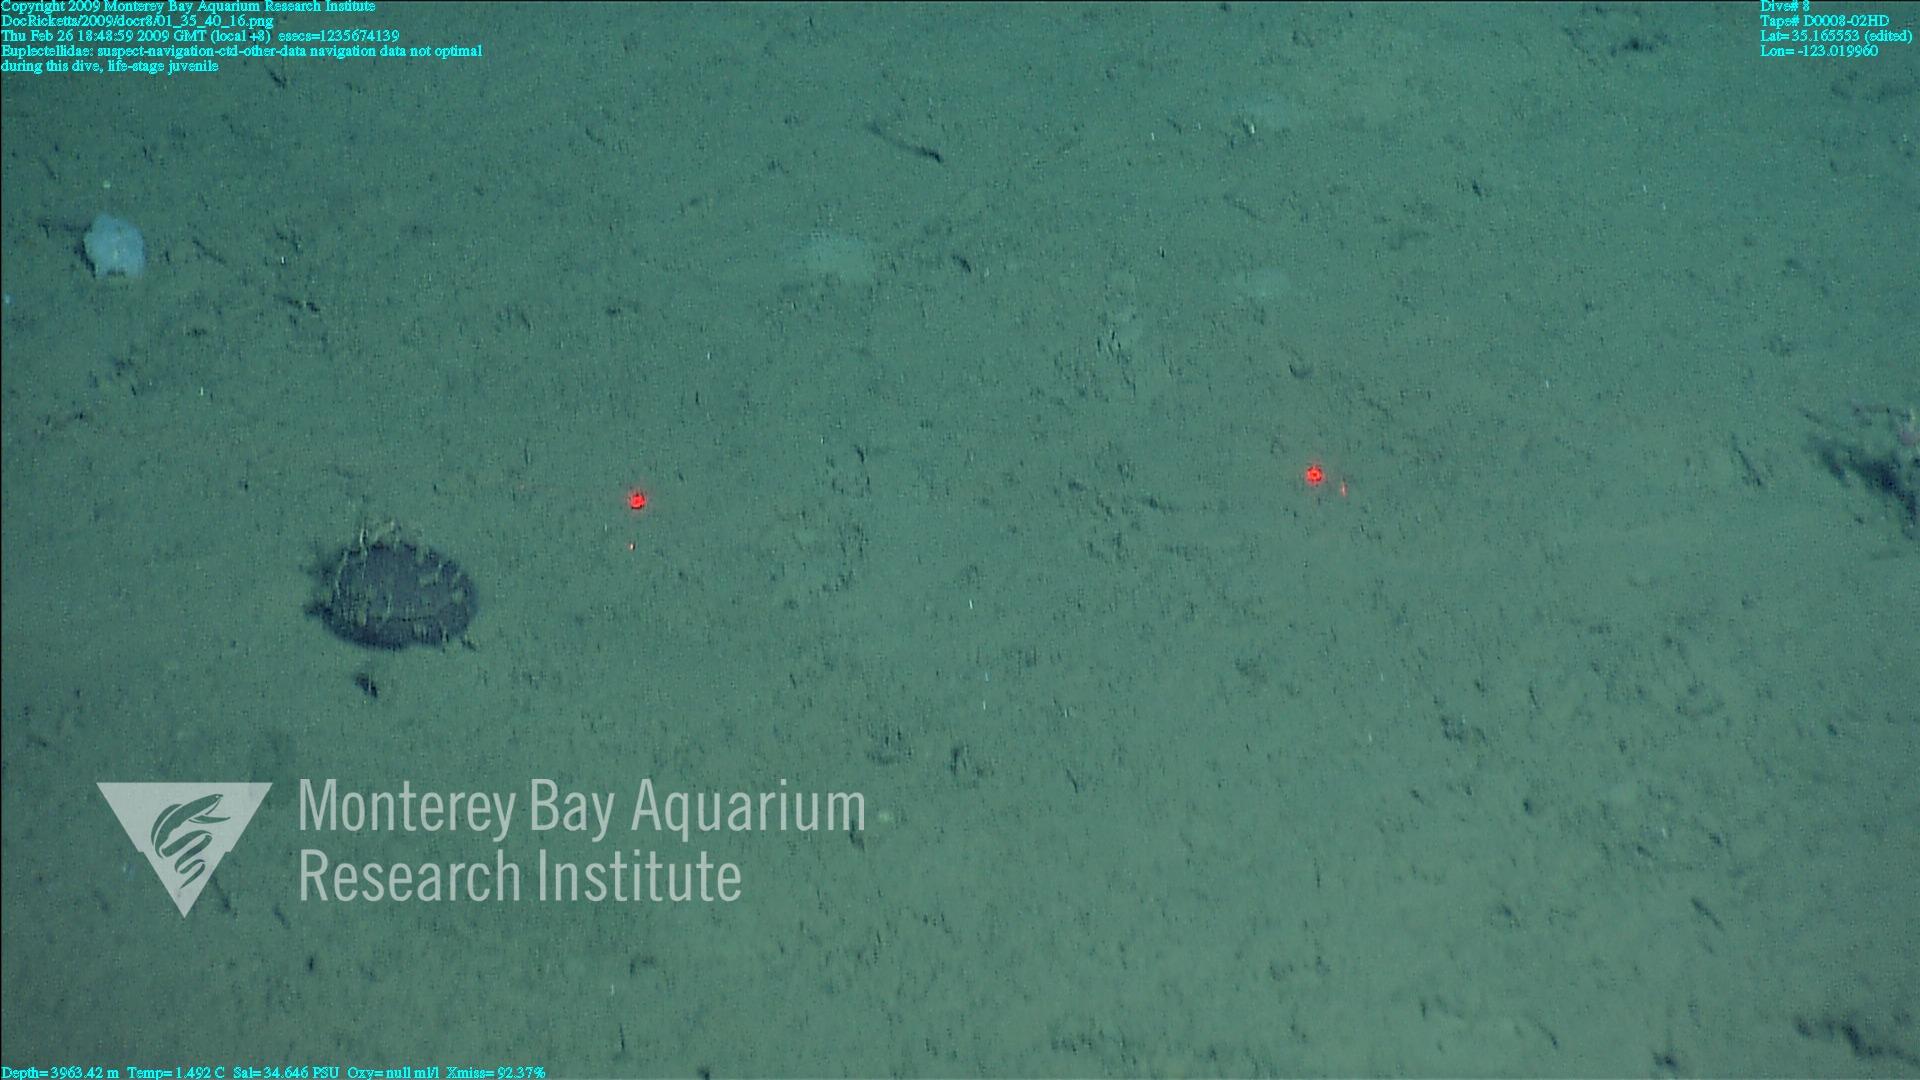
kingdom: Animalia
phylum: Porifera
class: Hexactinellida
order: Lyssacinosida
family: Euplectellidae
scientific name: Euplectellidae
